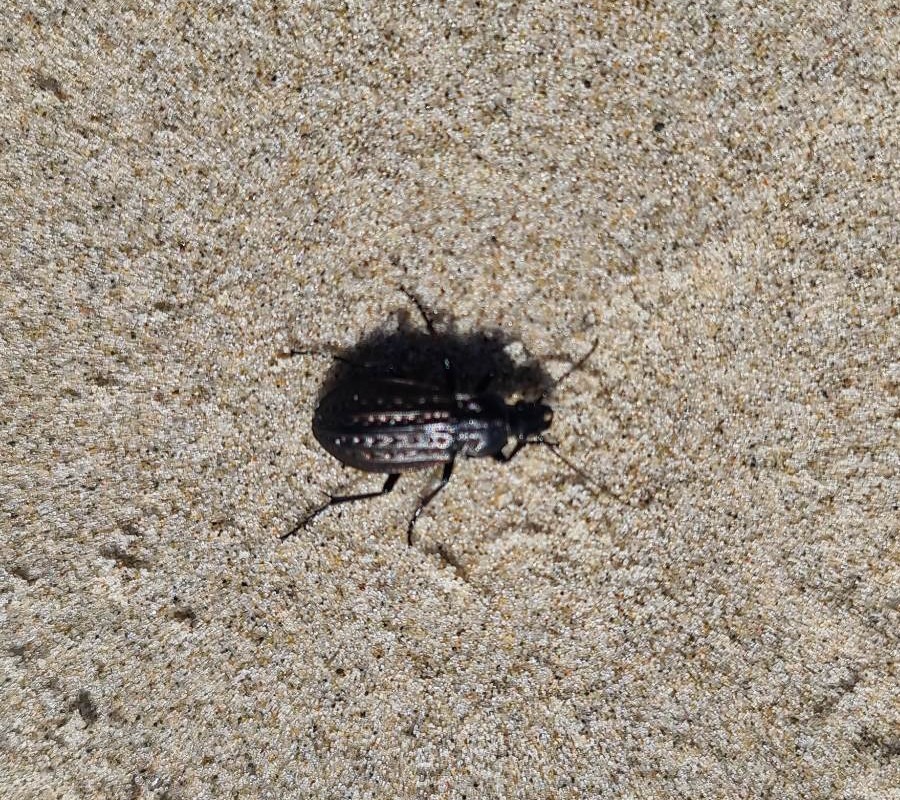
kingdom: Animalia
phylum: Arthropoda
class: Insecta
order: Coleoptera
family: Carabidae
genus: Carabus
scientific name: Carabus clatratus
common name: Dyndløber
